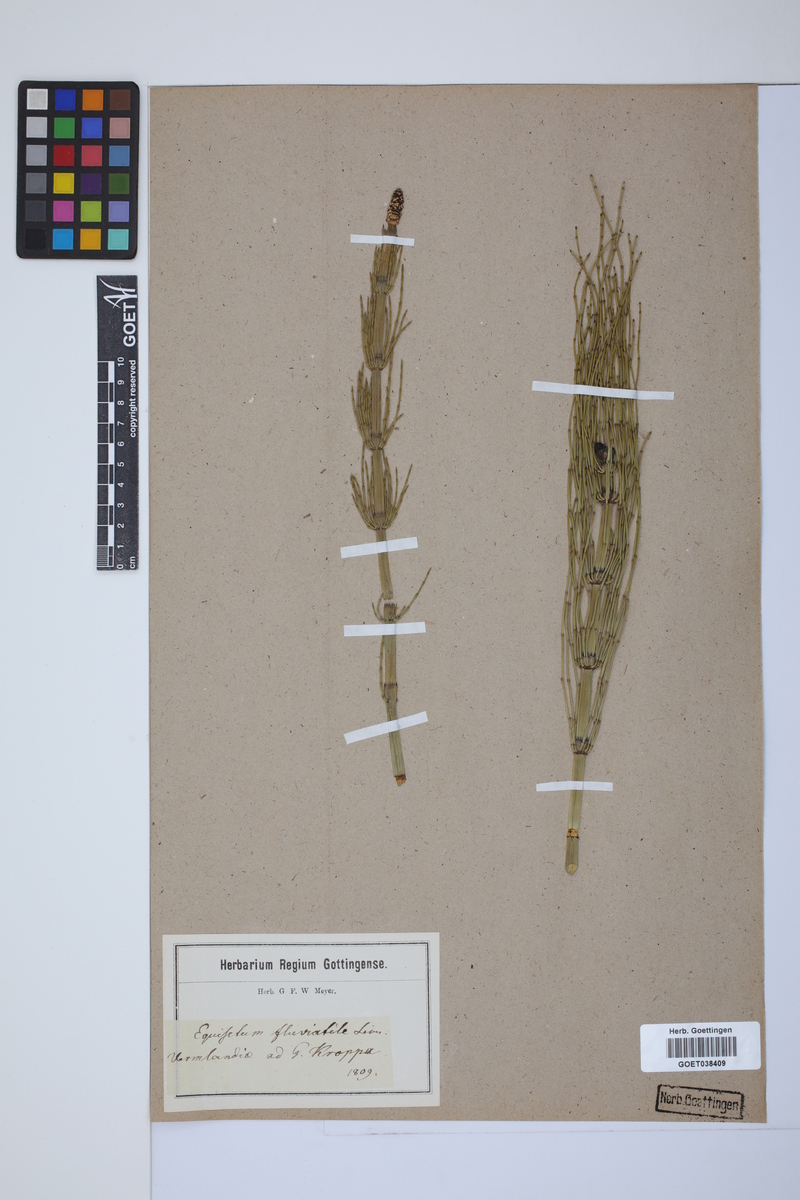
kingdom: Plantae
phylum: Tracheophyta
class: Polypodiopsida
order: Equisetales
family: Equisetaceae
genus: Equisetum
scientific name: Equisetum fluviatile
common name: Water horsetail
